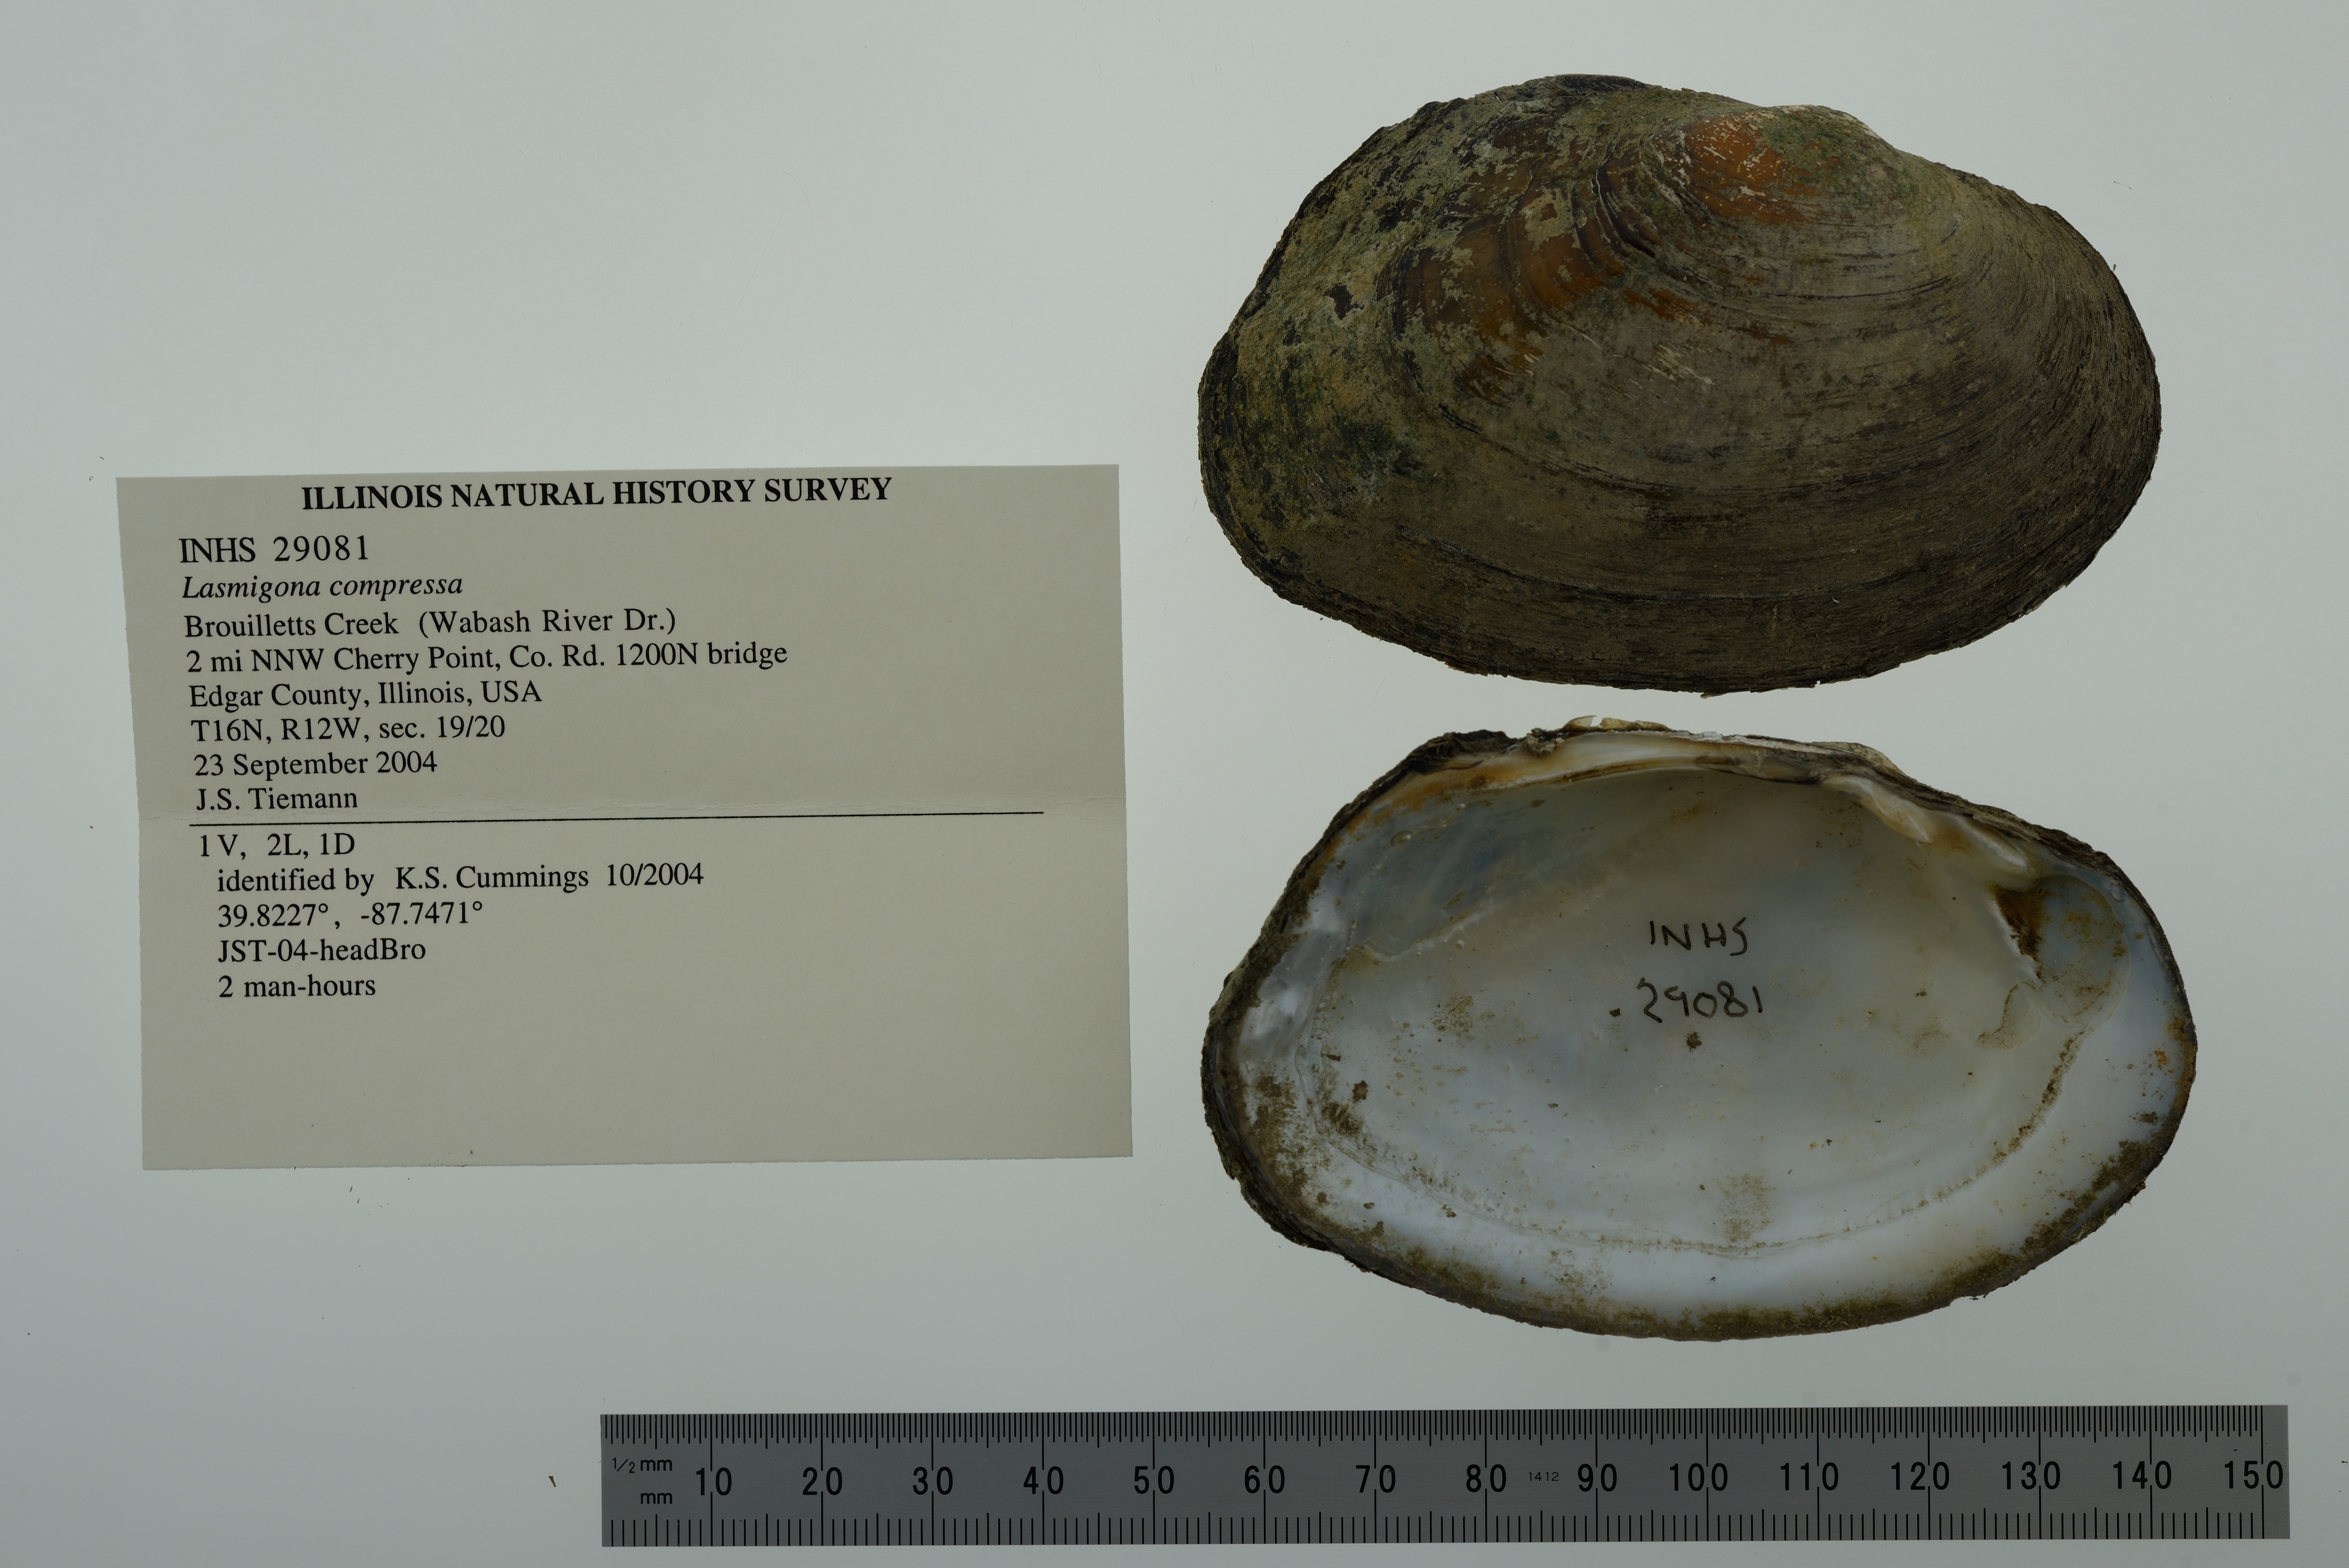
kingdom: Animalia
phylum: Mollusca
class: Bivalvia
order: Unionida
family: Unionidae
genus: Lasmigona
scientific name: Lasmigona compressa
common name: Creek heelsplitter
